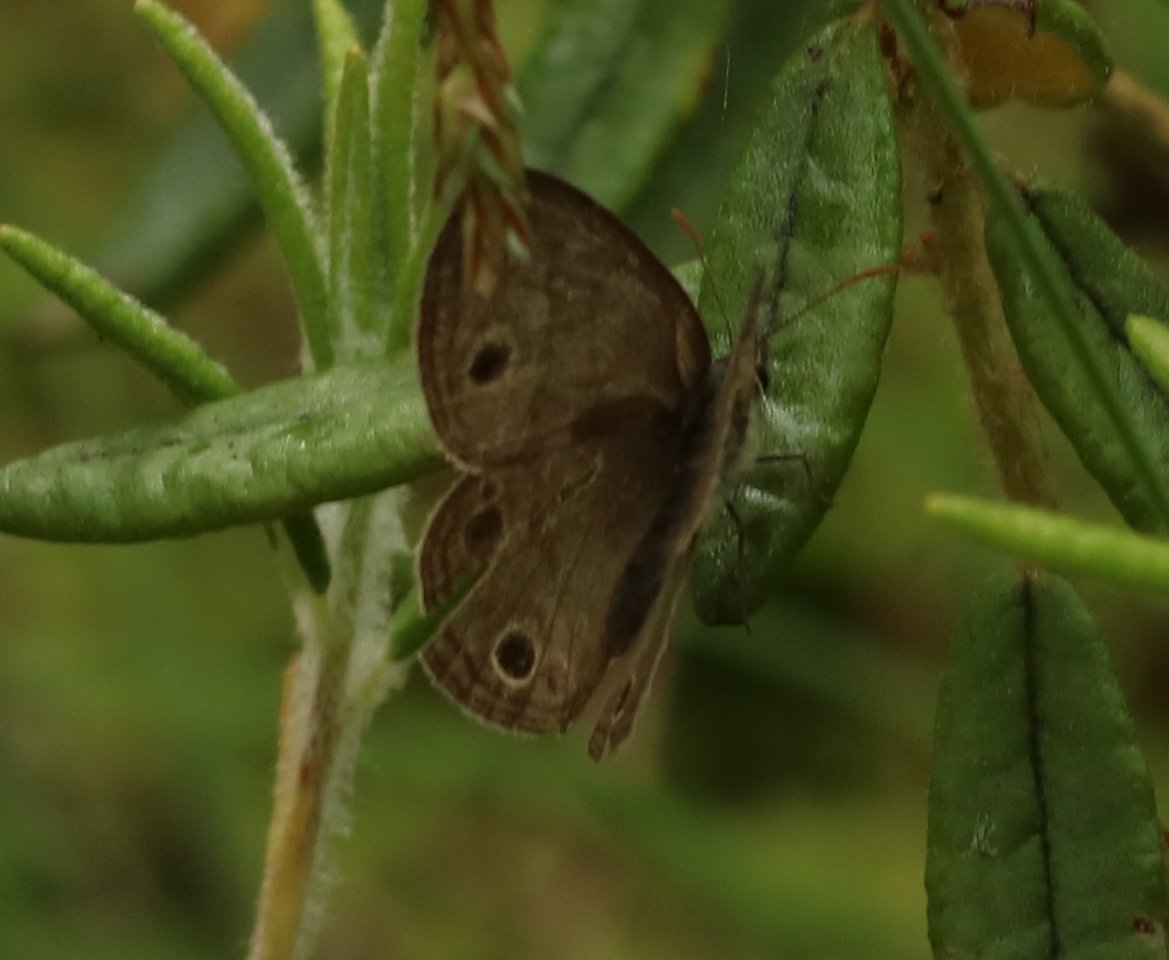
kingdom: Animalia
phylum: Arthropoda
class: Insecta
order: Lepidoptera
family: Nymphalidae
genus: Euptychia
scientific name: Euptychia cymela
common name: Little Wood Satyr
